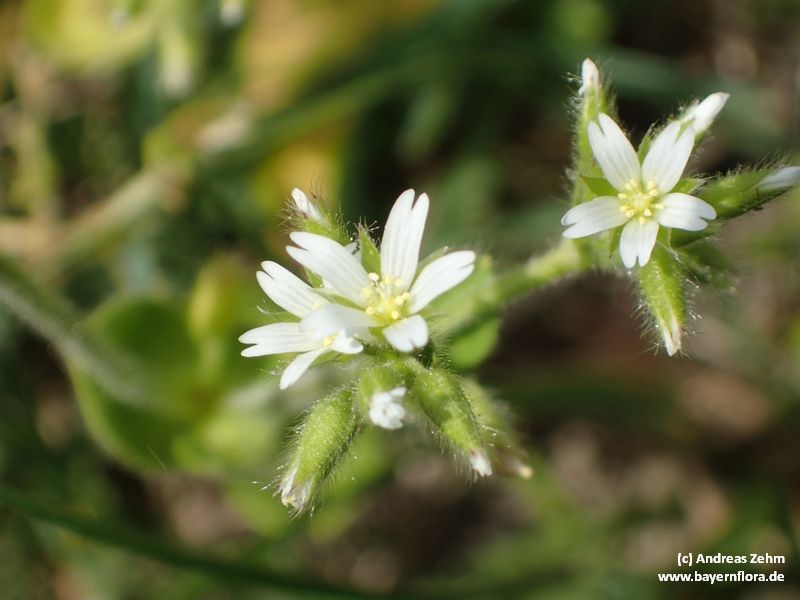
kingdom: Plantae
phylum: Tracheophyta
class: Magnoliopsida
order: Caryophyllales
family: Caryophyllaceae
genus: Cerastium
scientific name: Cerastium glomeratum
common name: Sticky chickweed
